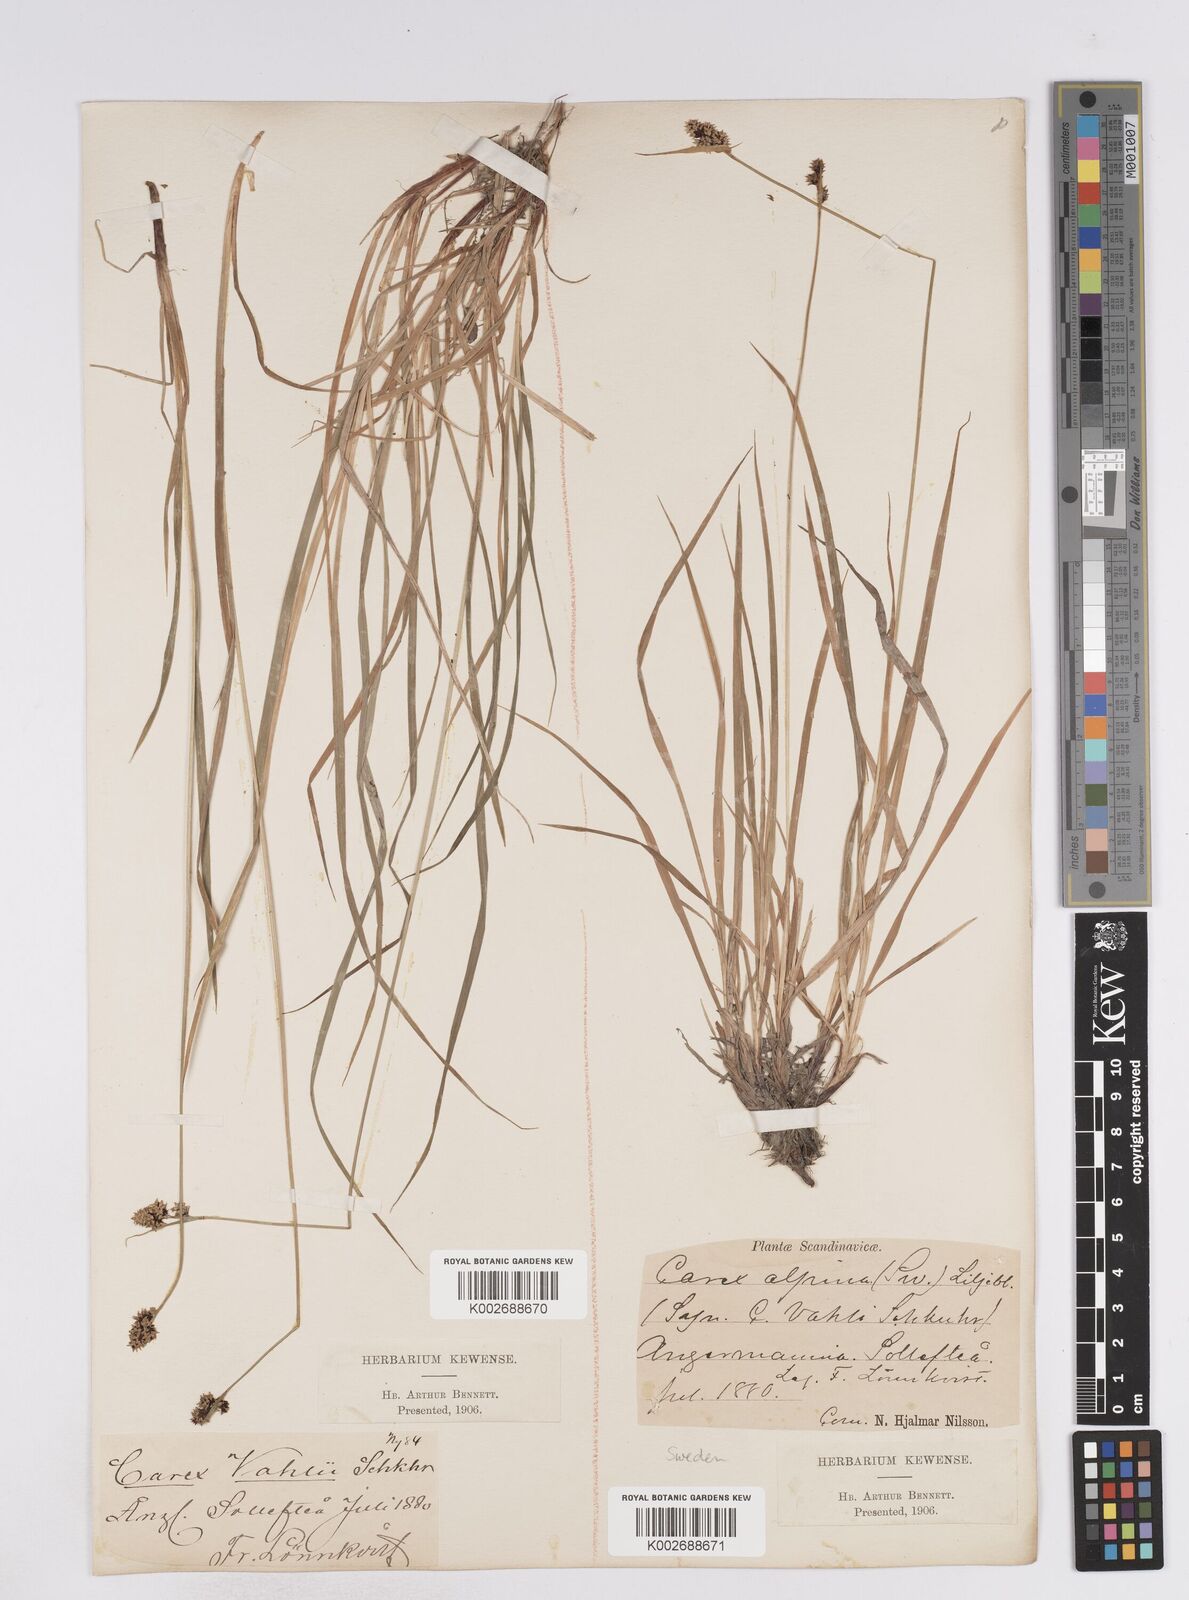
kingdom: Plantae
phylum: Tracheophyta
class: Liliopsida
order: Poales
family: Cyperaceae
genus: Carex
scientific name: Carex media
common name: Alpine sedge
